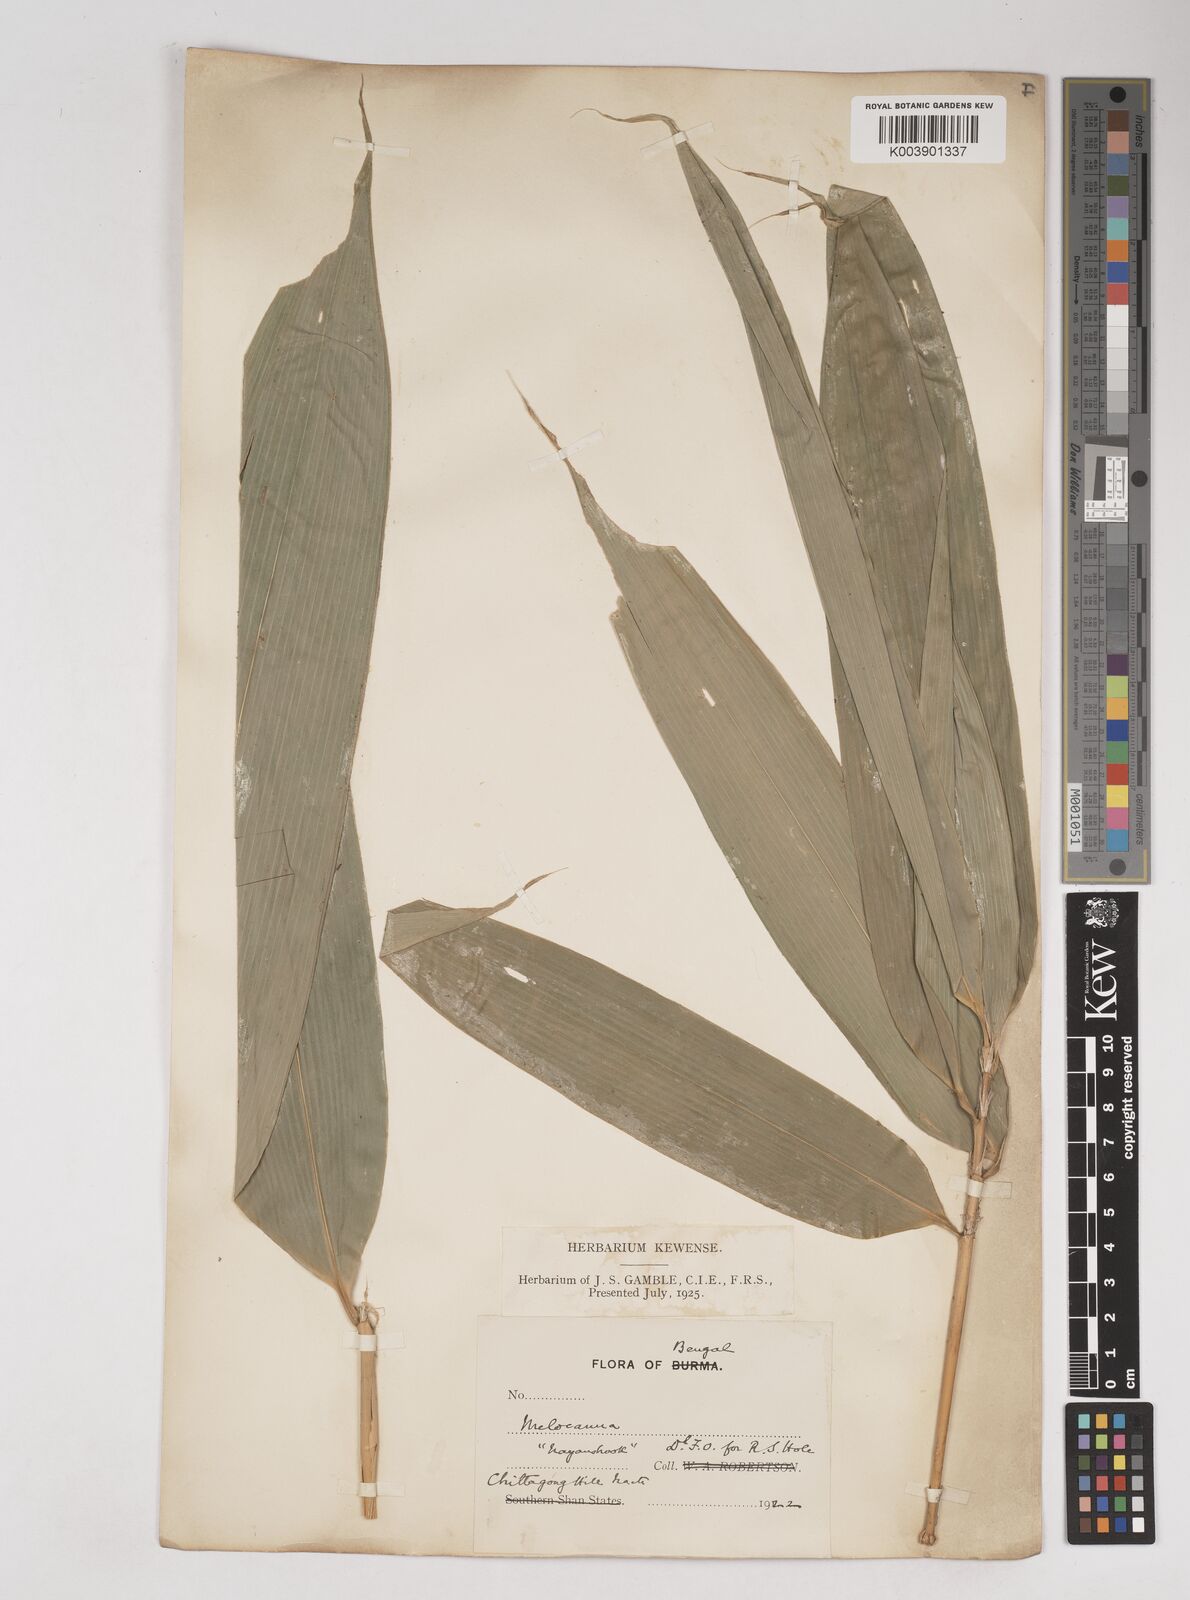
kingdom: Plantae
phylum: Tracheophyta
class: Liliopsida
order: Poales
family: Poaceae
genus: Melocanna
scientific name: Melocanna
